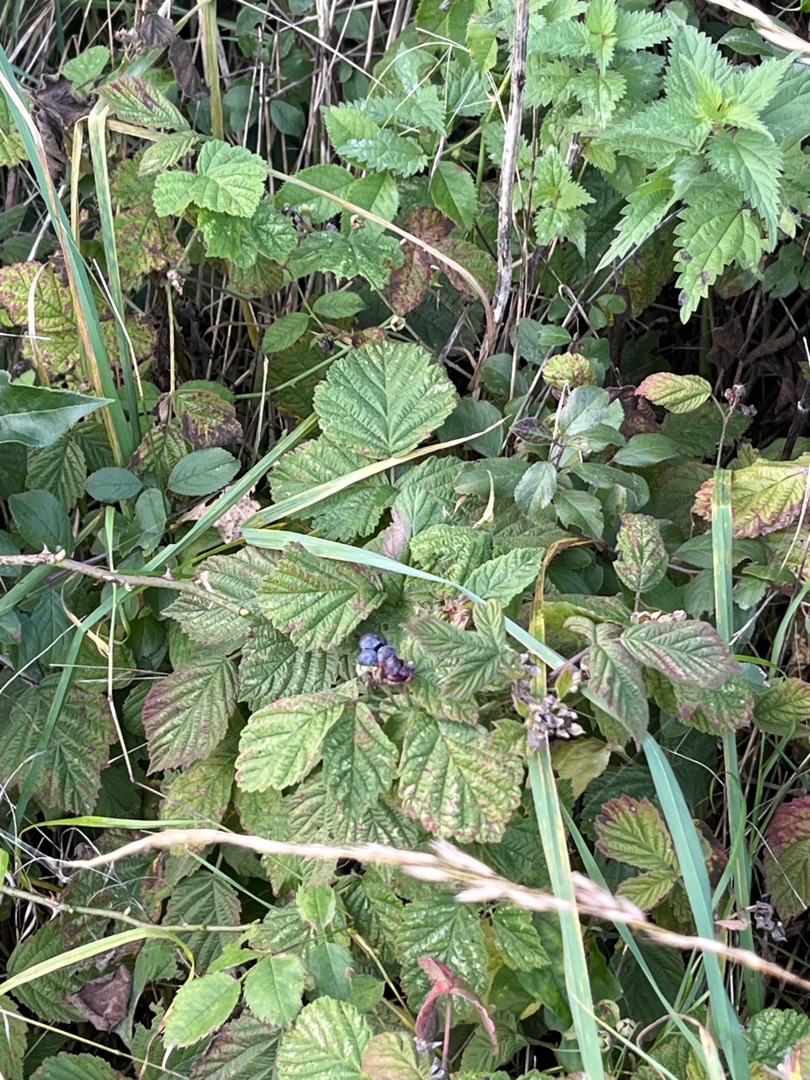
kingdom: Plantae
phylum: Tracheophyta
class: Magnoliopsida
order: Rosales
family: Rosaceae
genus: Rubus
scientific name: Rubus caesius
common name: Korbær
